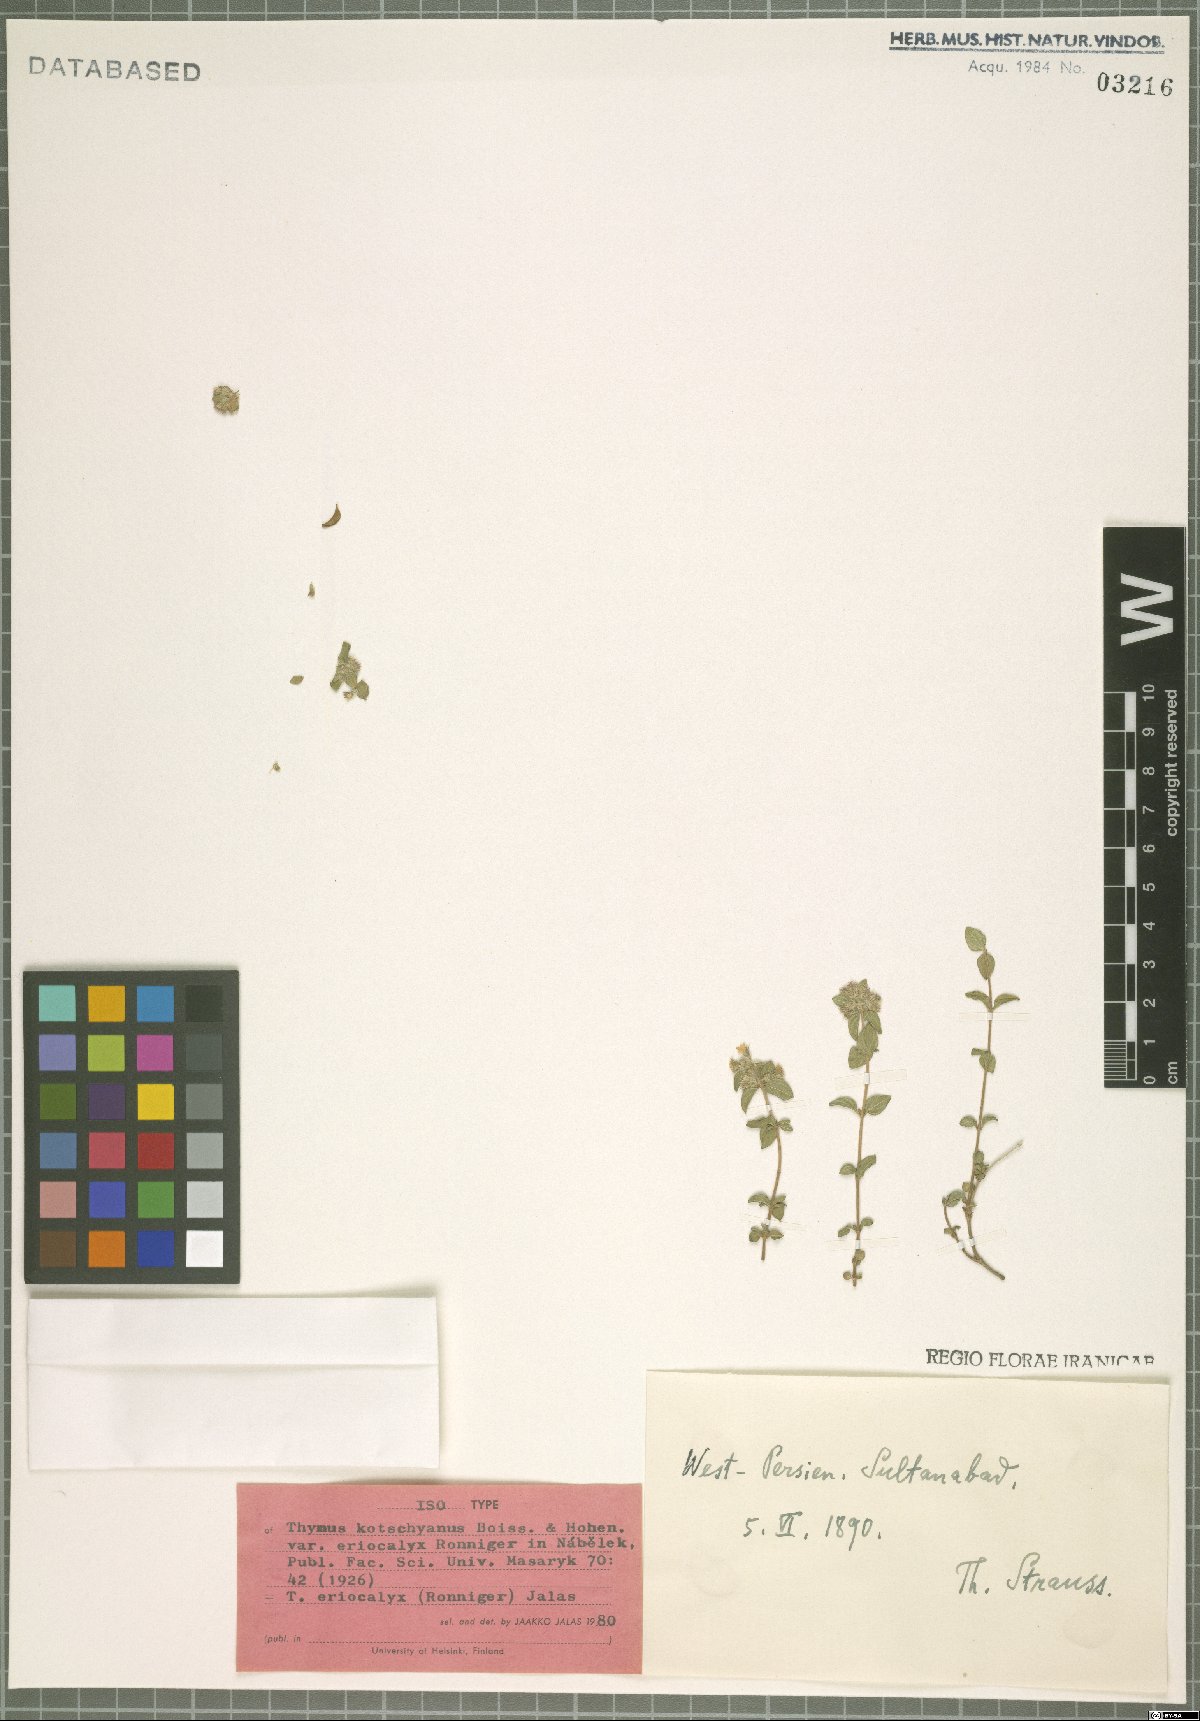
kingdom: Plantae
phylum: Tracheophyta
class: Magnoliopsida
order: Lamiales
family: Lamiaceae
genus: Thymus
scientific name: Thymus eriocalyx
